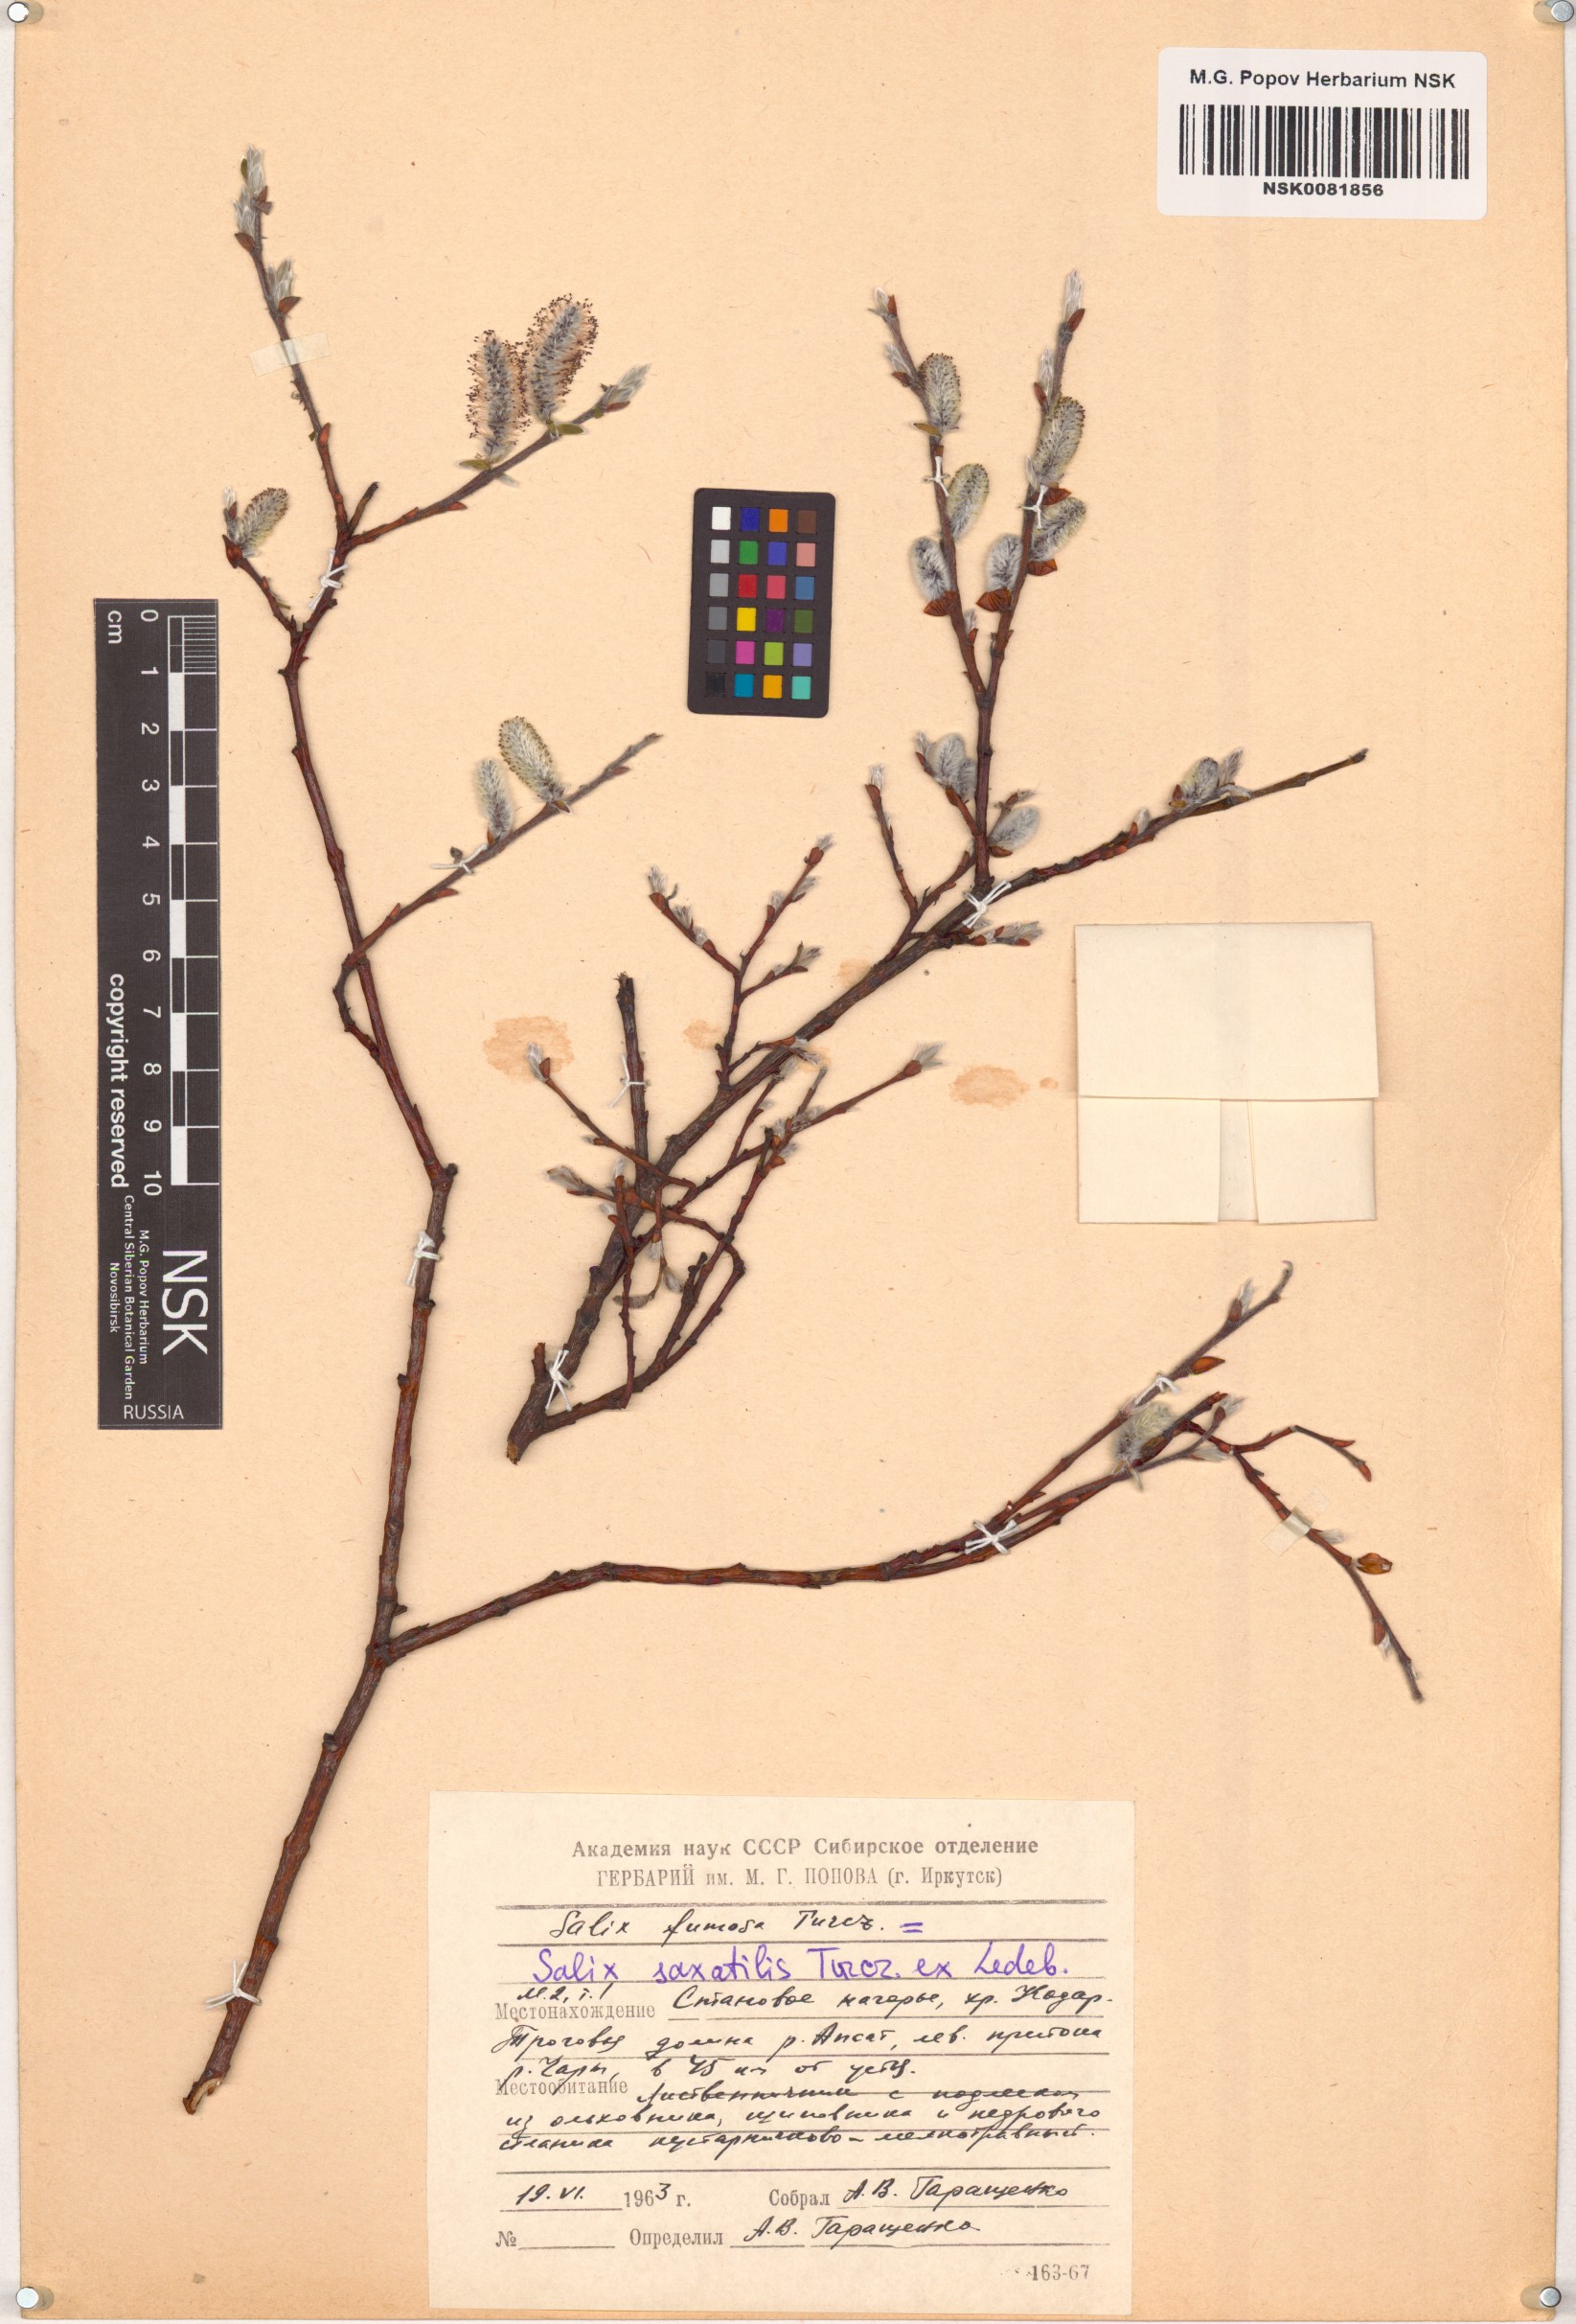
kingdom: Plantae
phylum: Tracheophyta
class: Magnoliopsida
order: Malpighiales
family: Salicaceae
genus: Salix
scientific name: Salix saxatilis
